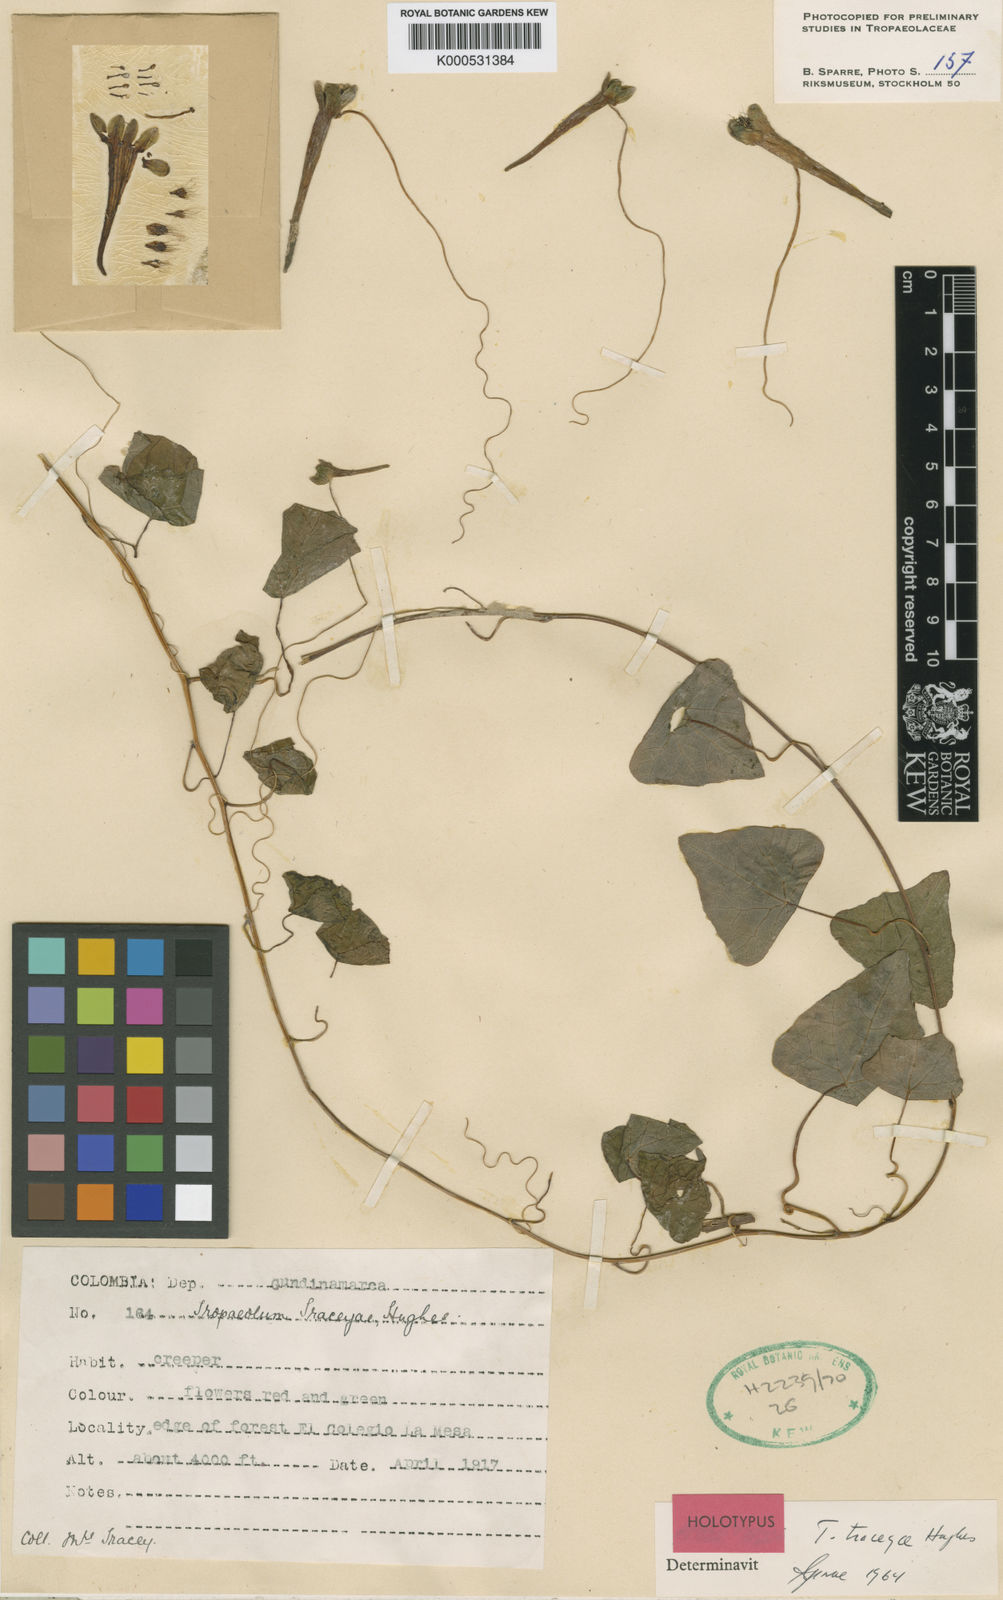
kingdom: Plantae
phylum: Tracheophyta
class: Magnoliopsida
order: Brassicales
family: Tropaeolaceae
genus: Tropaeolum
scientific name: Tropaeolum traceyae
